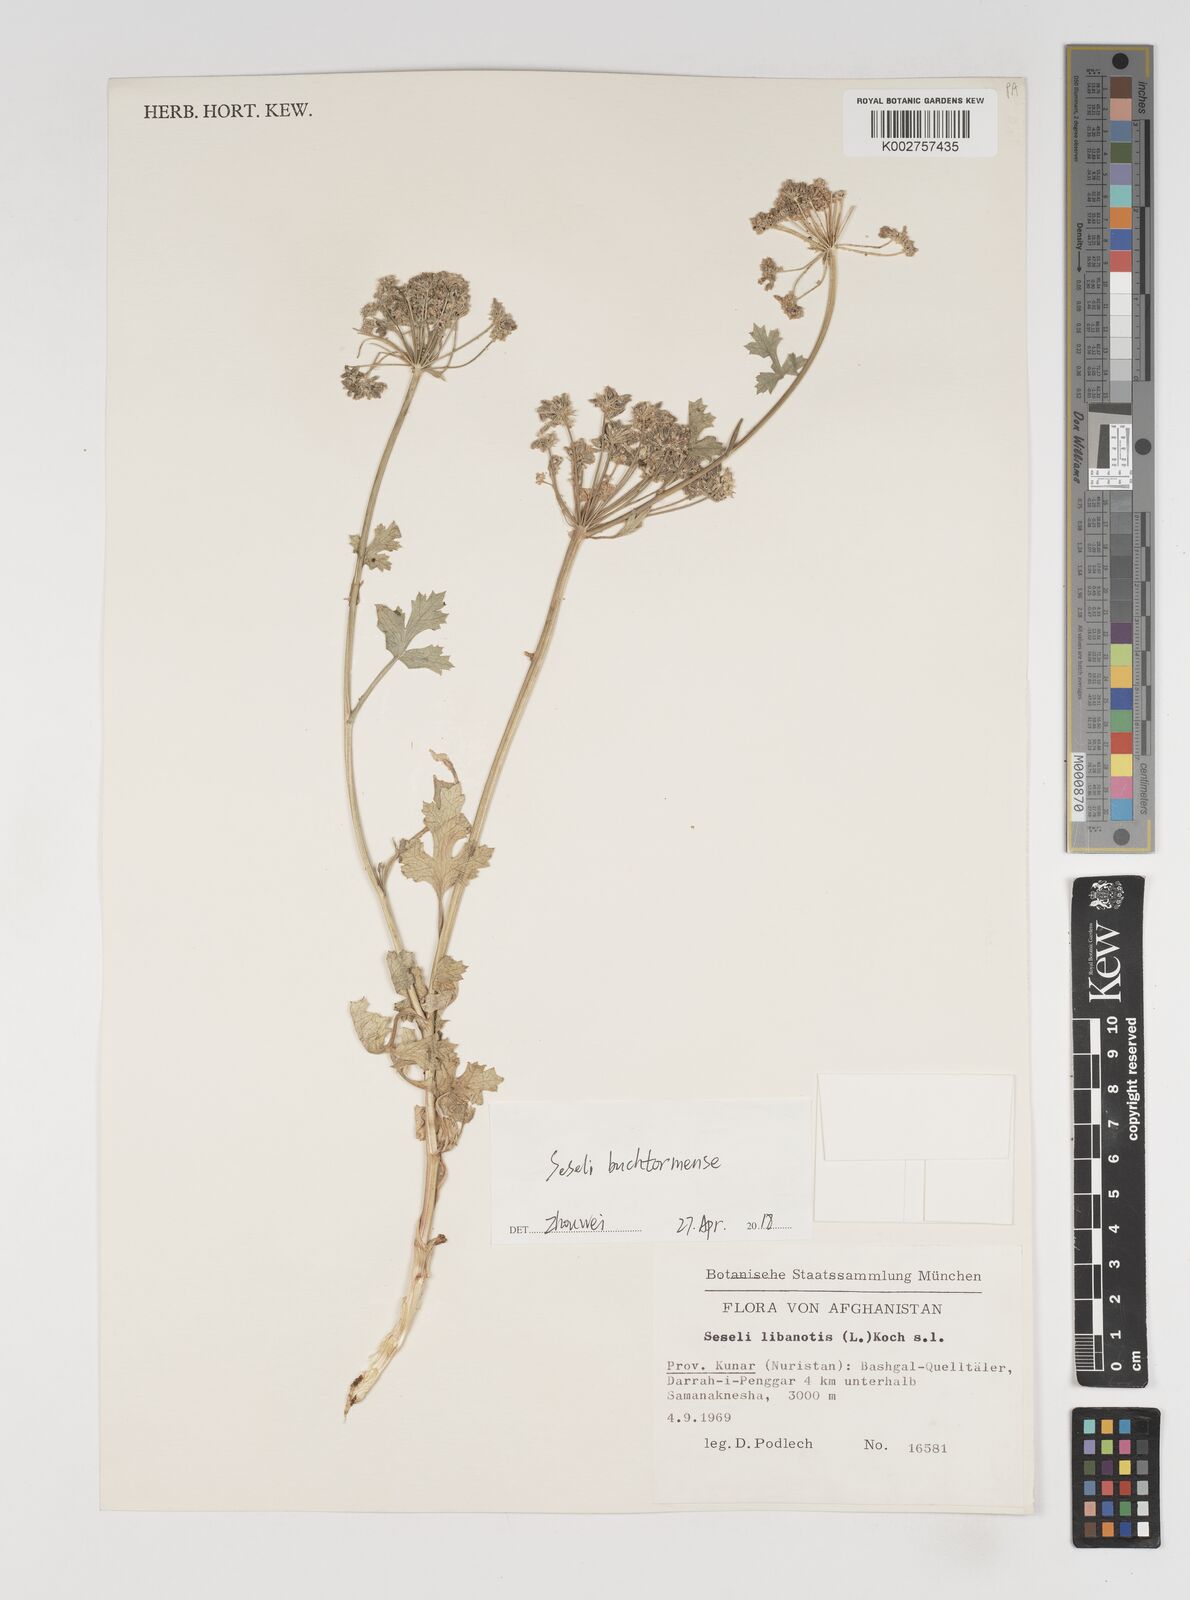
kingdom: Plantae
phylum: Tracheophyta
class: Magnoliopsida
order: Apiales
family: Apiaceae
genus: Seseli
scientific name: Seseli buchtormense
